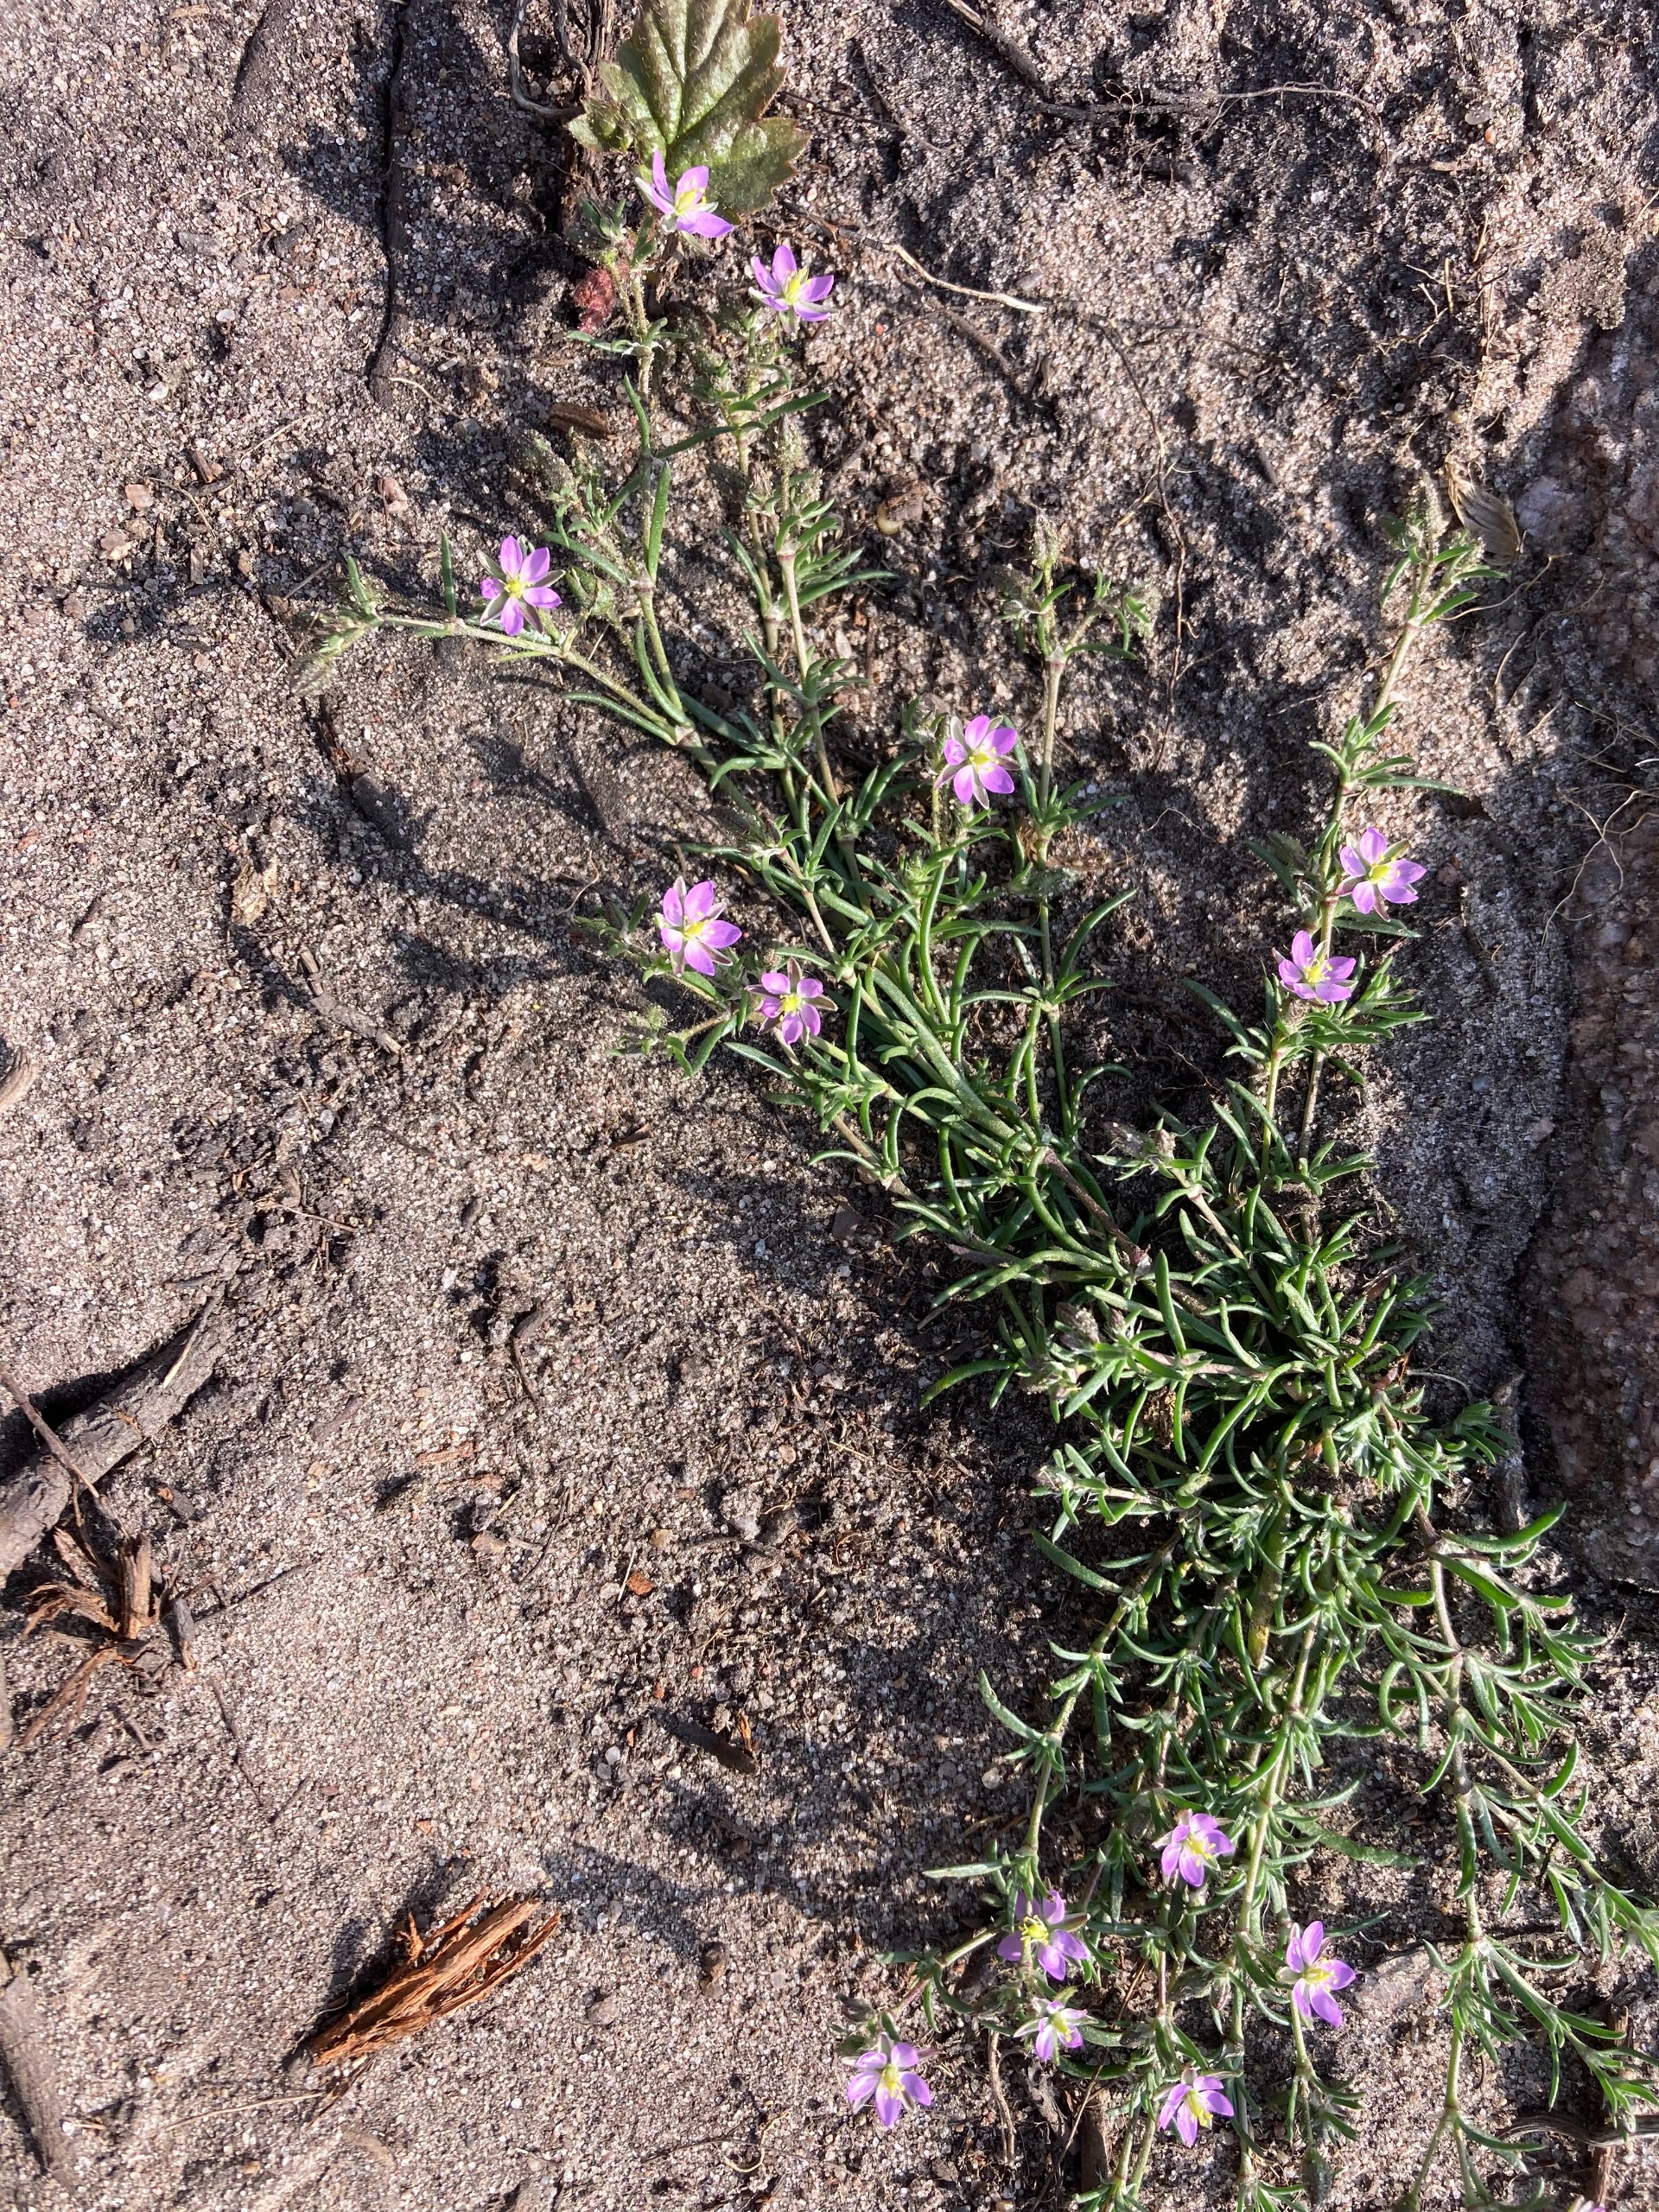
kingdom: Plantae
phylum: Tracheophyta
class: Magnoliopsida
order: Caryophyllales
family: Caryophyllaceae
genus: Spergularia
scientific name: Spergularia marina
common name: Kødet hindeknæ
